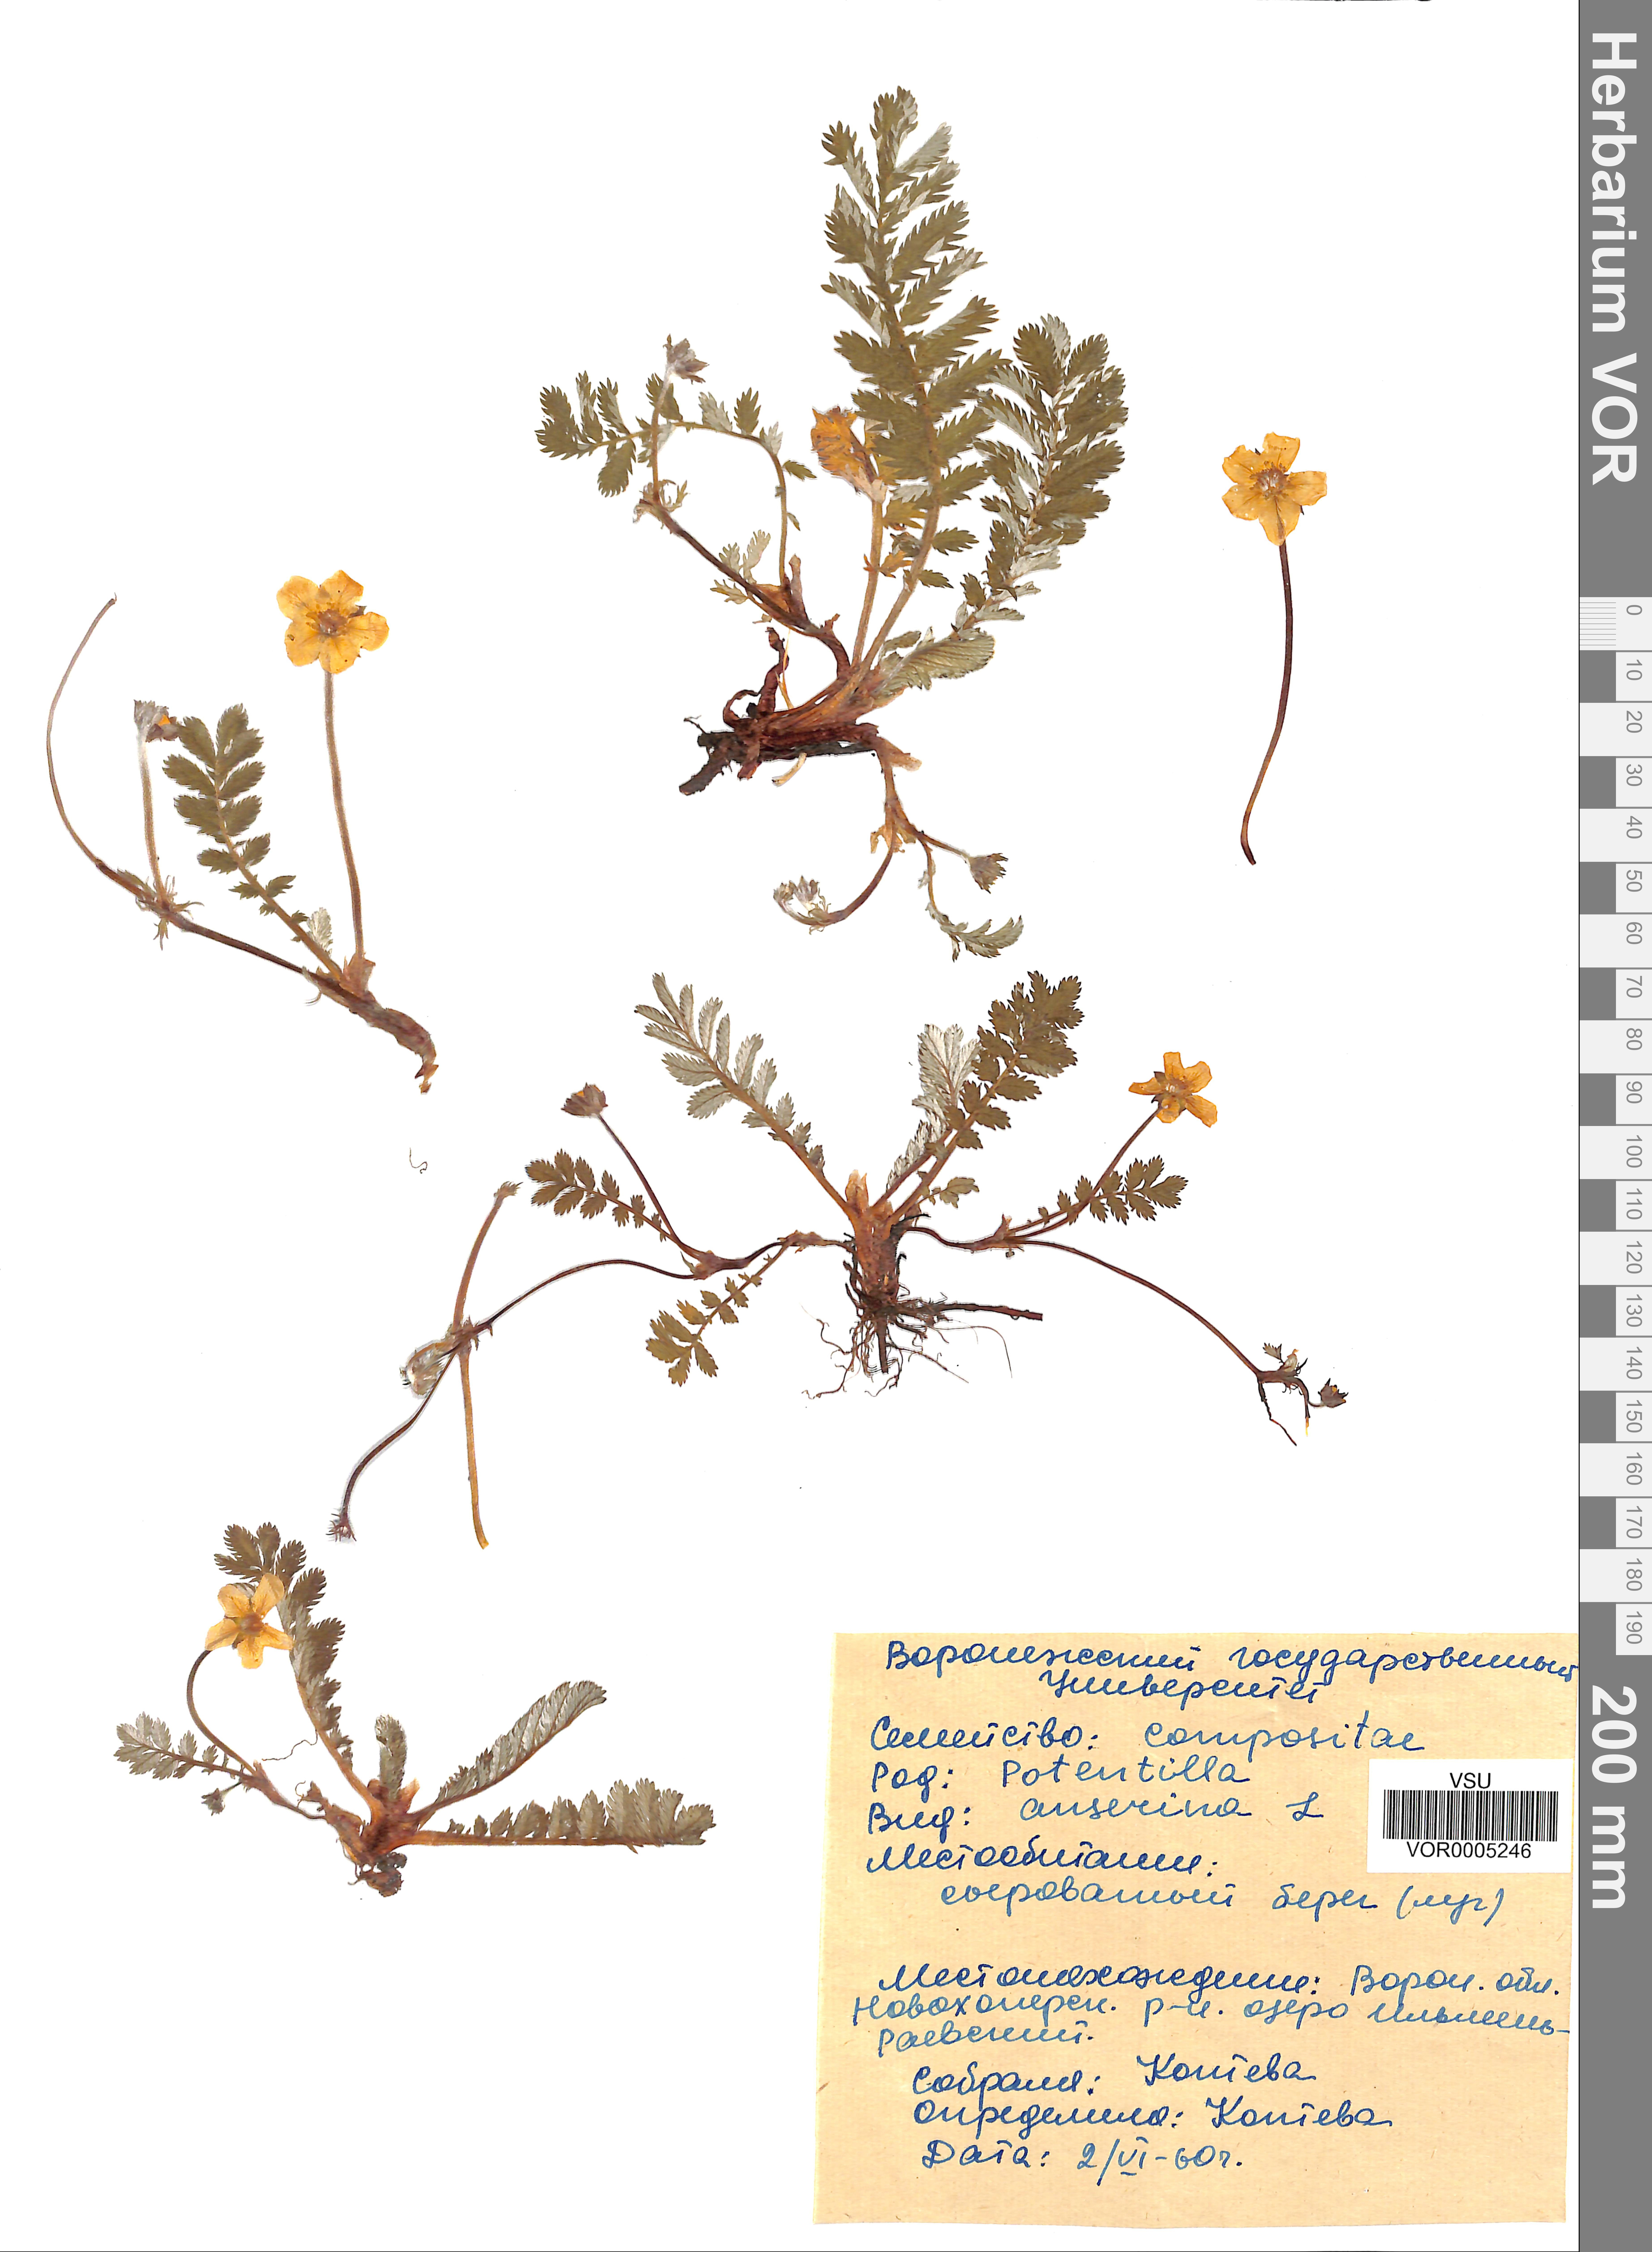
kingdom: Plantae
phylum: Tracheophyta
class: Magnoliopsida
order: Rosales
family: Rosaceae
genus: Argentina
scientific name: Argentina anserina
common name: Common silverweed
